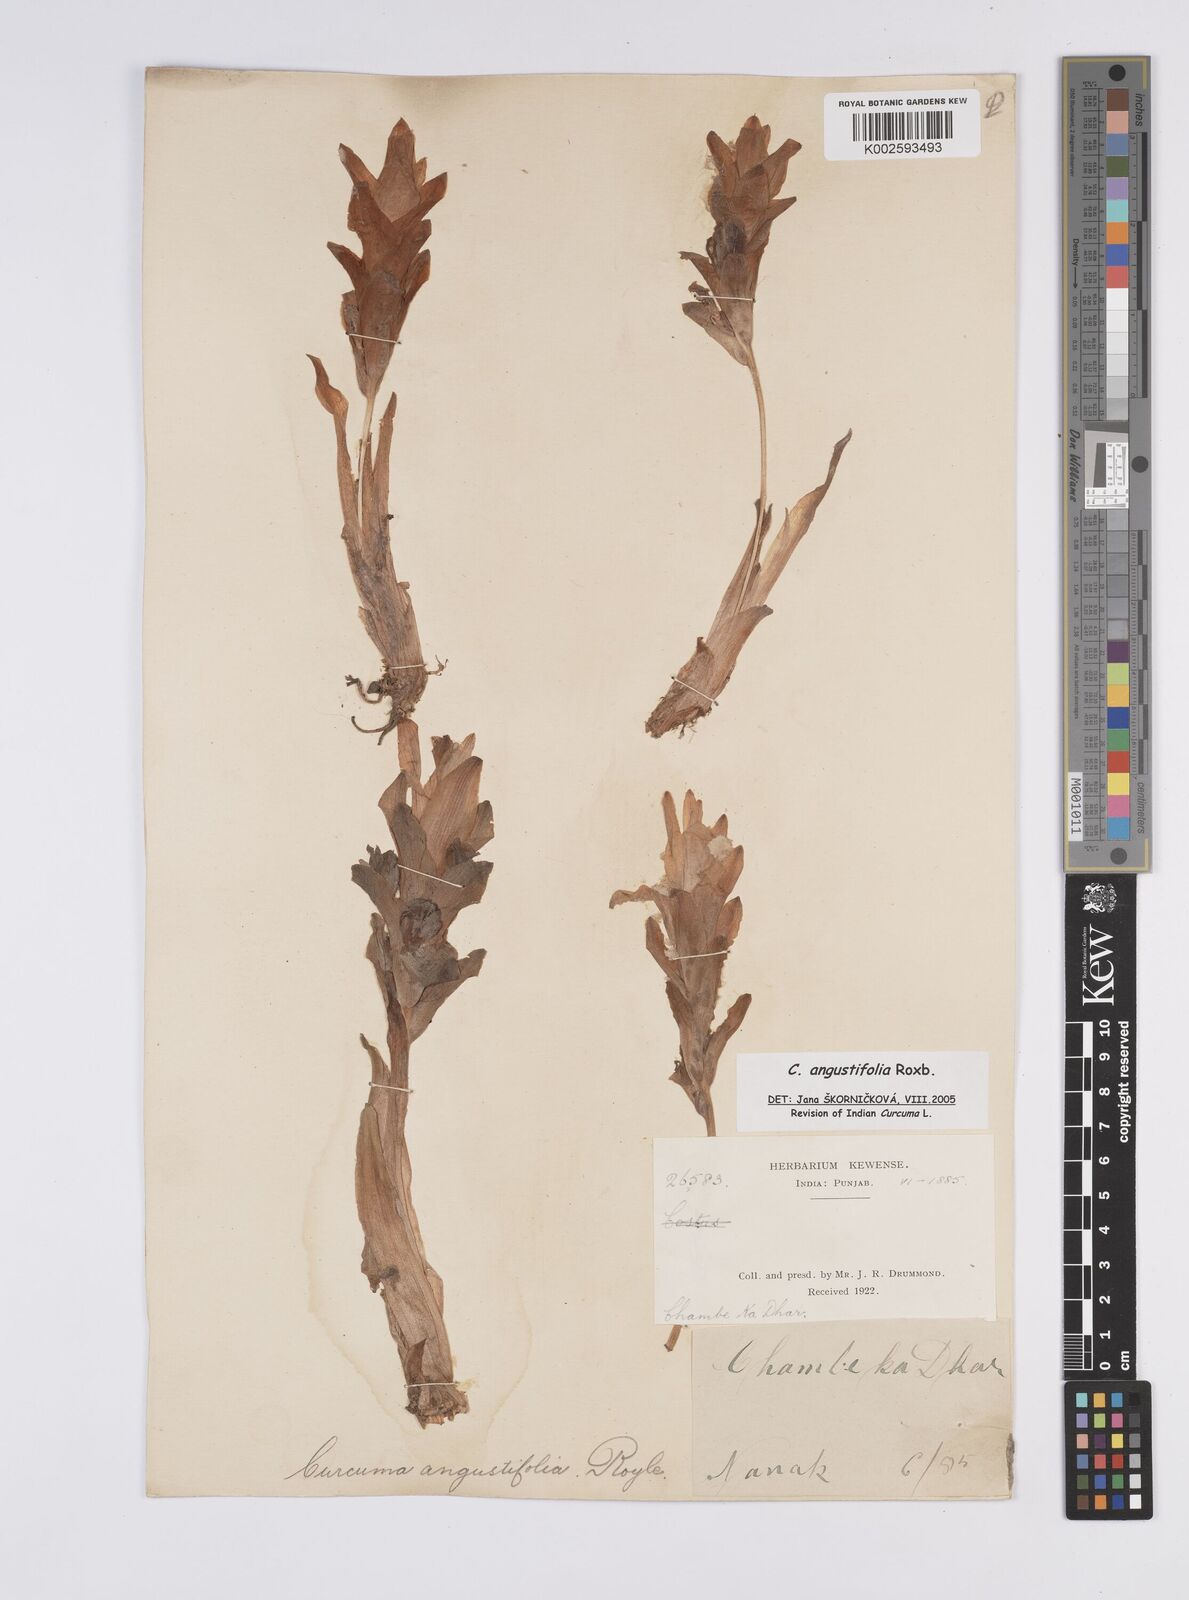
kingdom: Plantae
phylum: Tracheophyta
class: Liliopsida
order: Zingiberales
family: Zingiberaceae
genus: Curcuma
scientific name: Curcuma angustifolia
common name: East indian arrowroot
